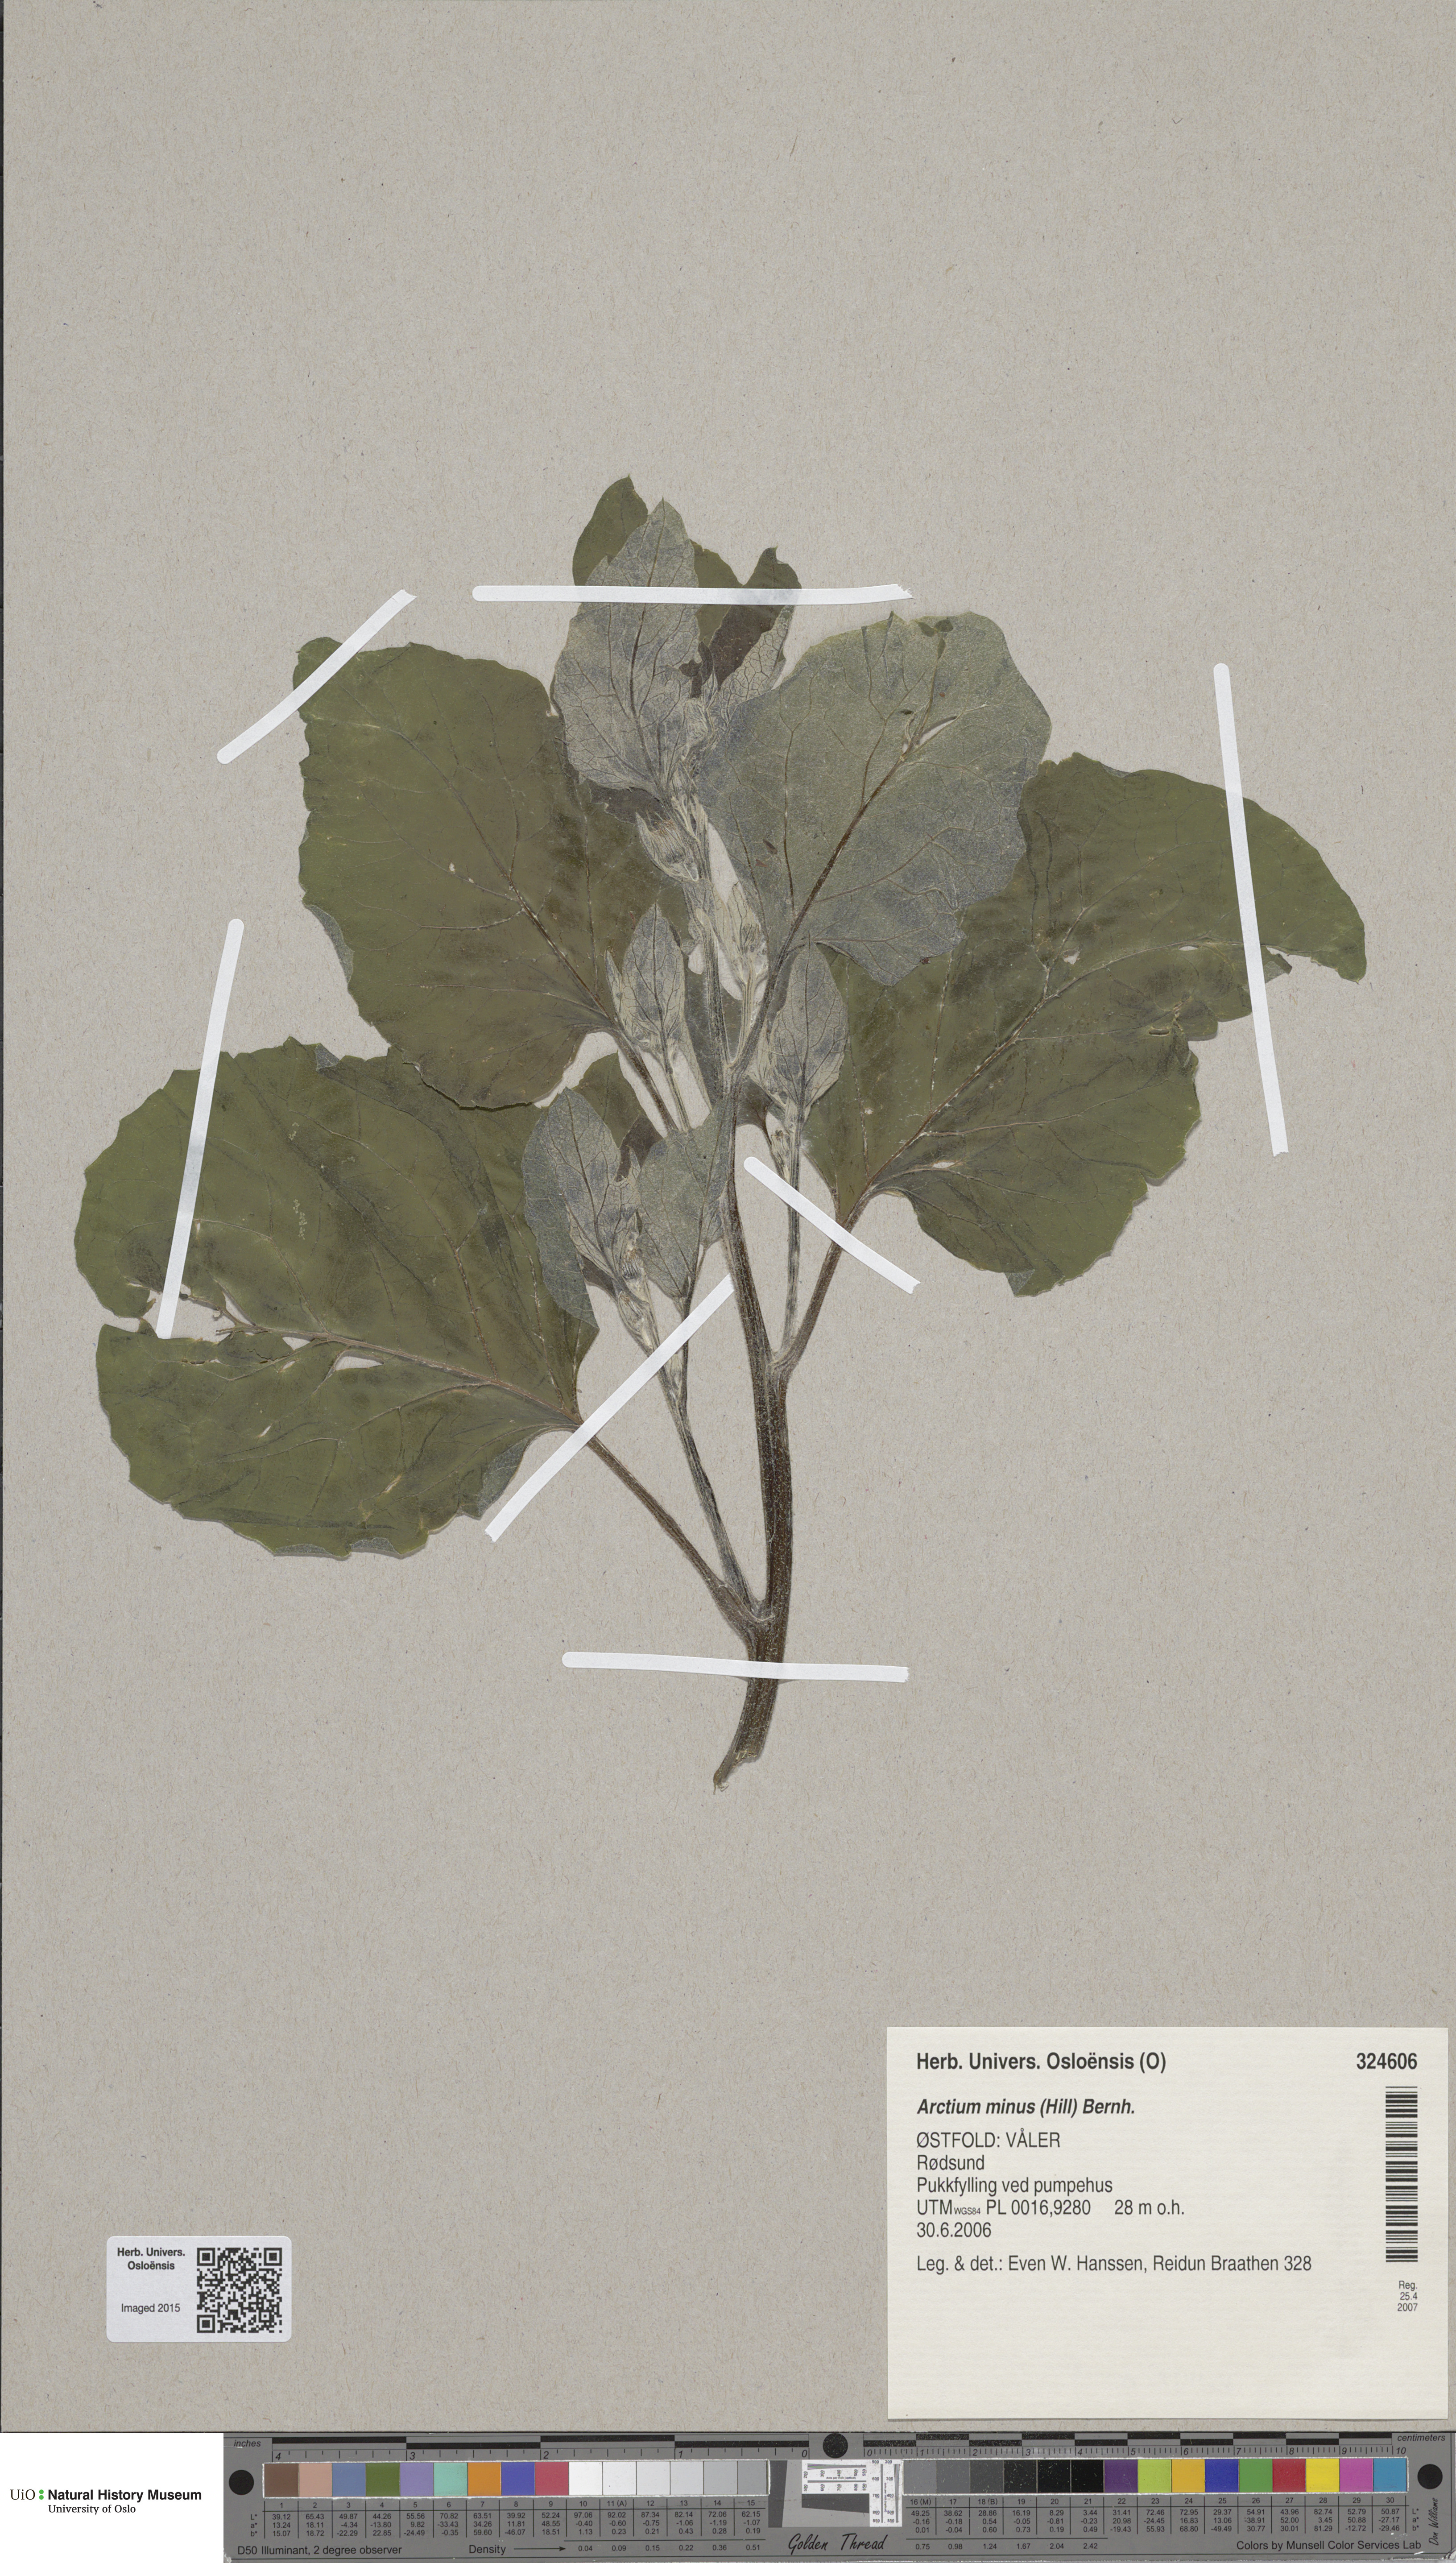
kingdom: Plantae
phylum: Tracheophyta
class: Magnoliopsida
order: Asterales
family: Asteraceae
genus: Arctium
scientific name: Arctium minus
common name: Lesser burdock
